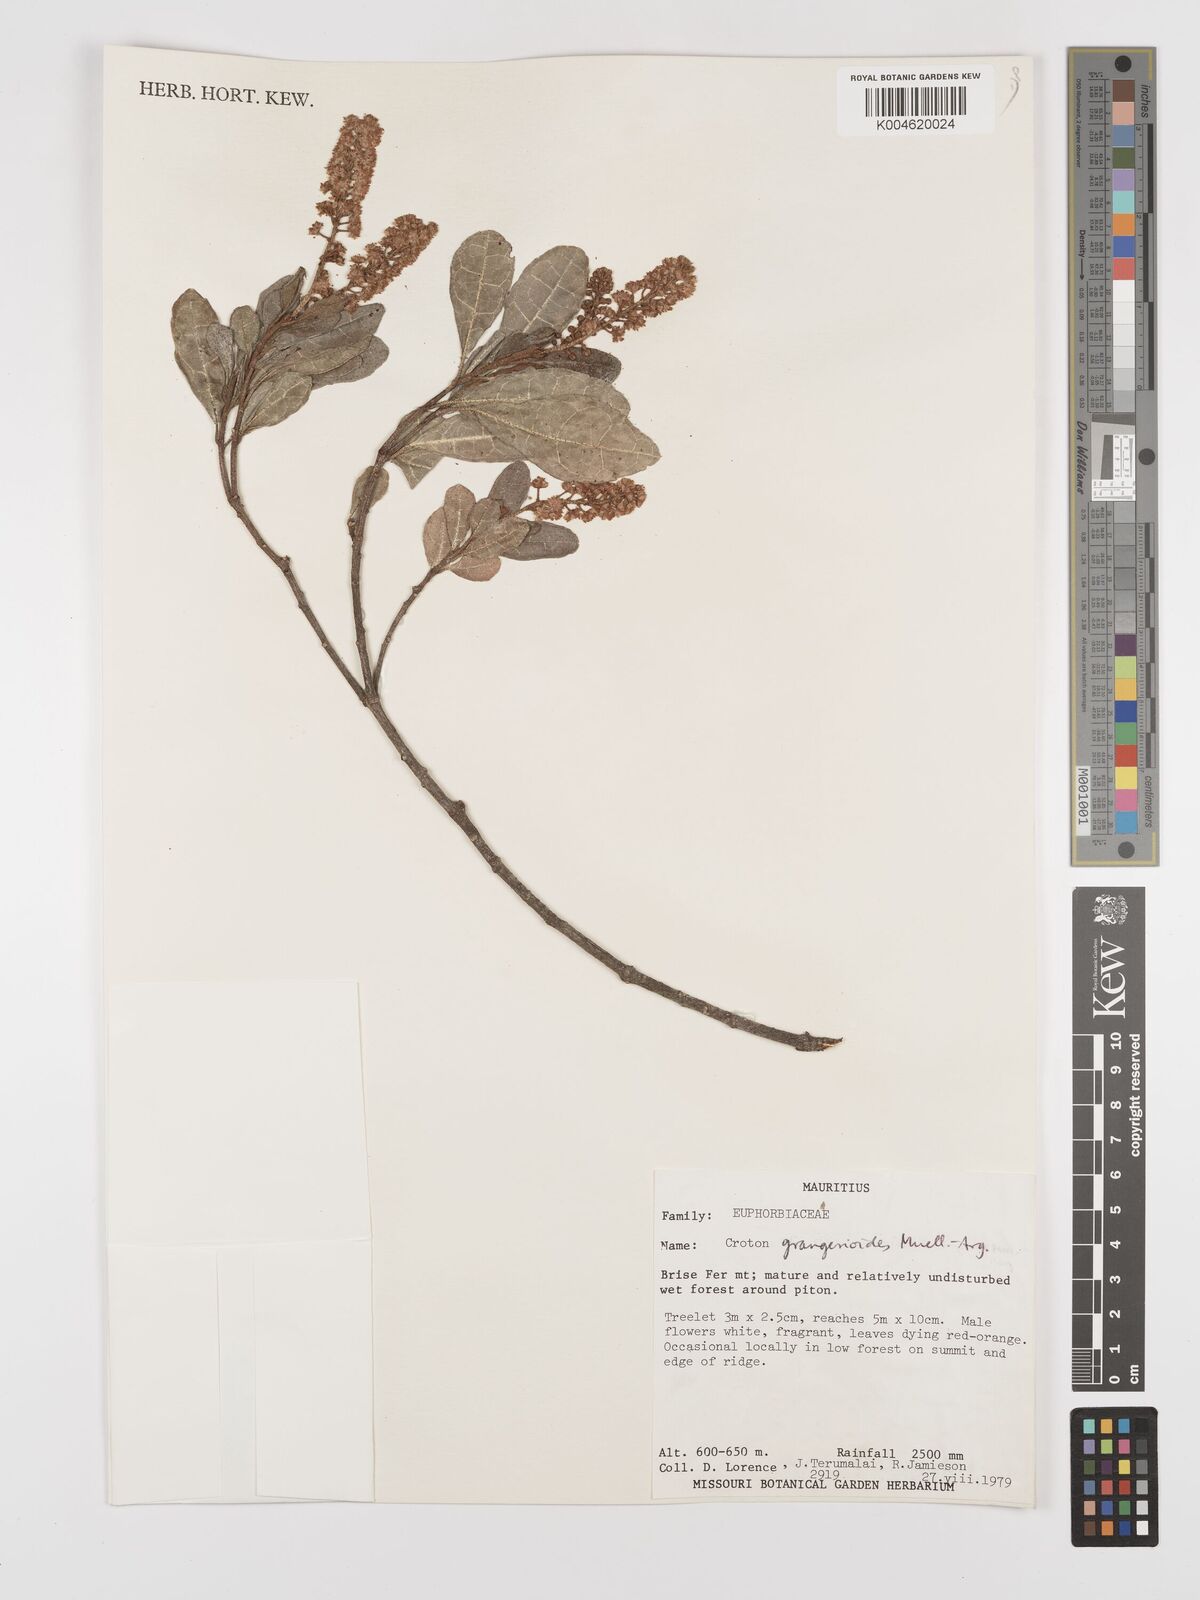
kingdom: Plantae
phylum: Tracheophyta
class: Magnoliopsida
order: Malpighiales
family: Euphorbiaceae
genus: Croton
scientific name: Croton grangerioides
